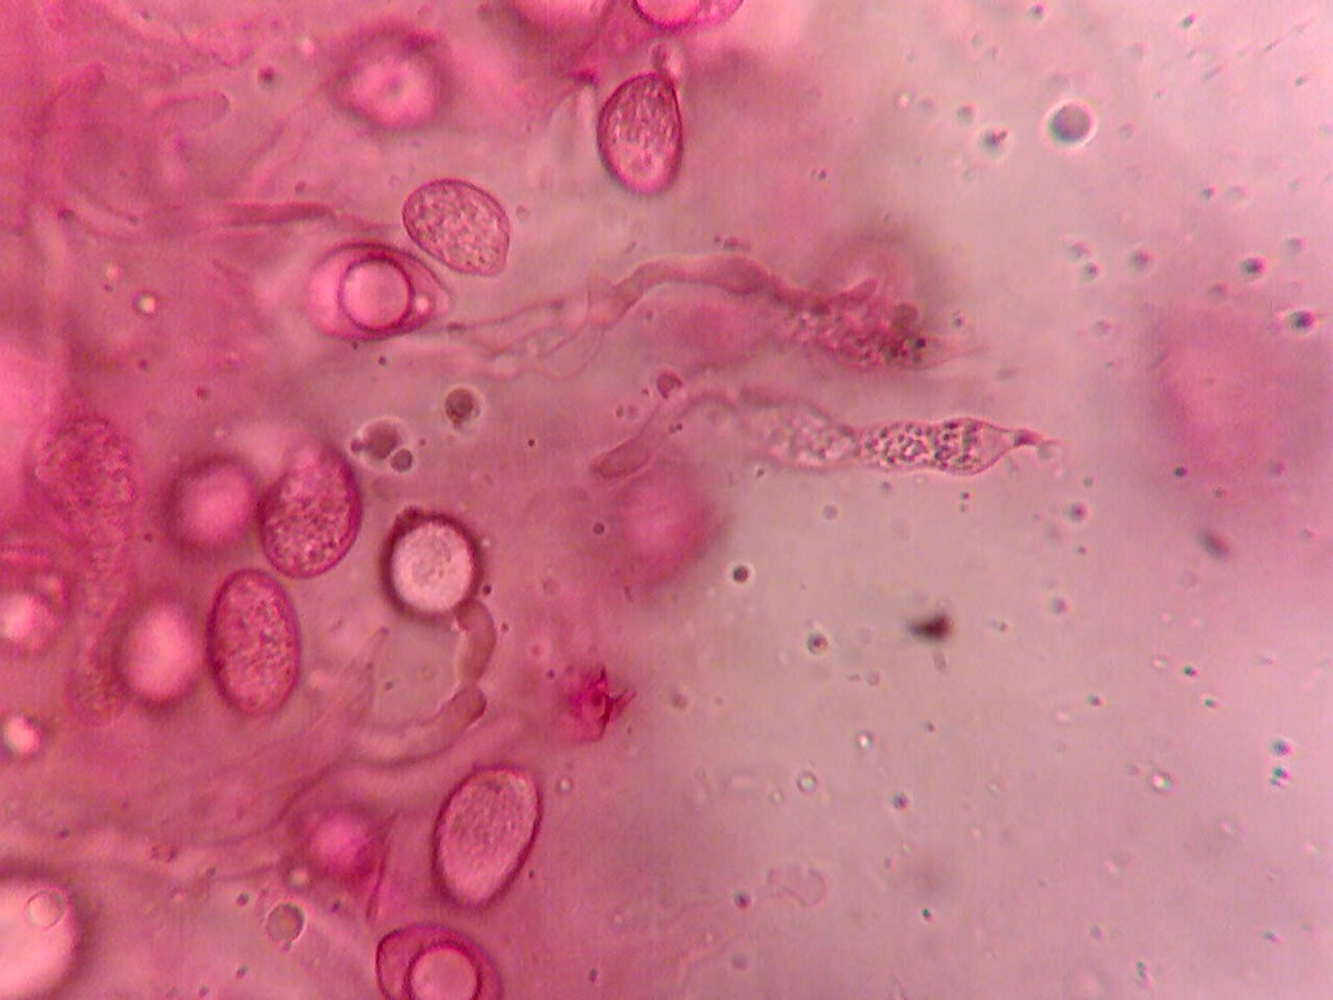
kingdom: Fungi
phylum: Basidiomycota
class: Agaricomycetes
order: Sebacinales
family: Sebacinaceae
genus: Sebacina
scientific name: Sebacina incrustans
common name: krybende bævretalg
